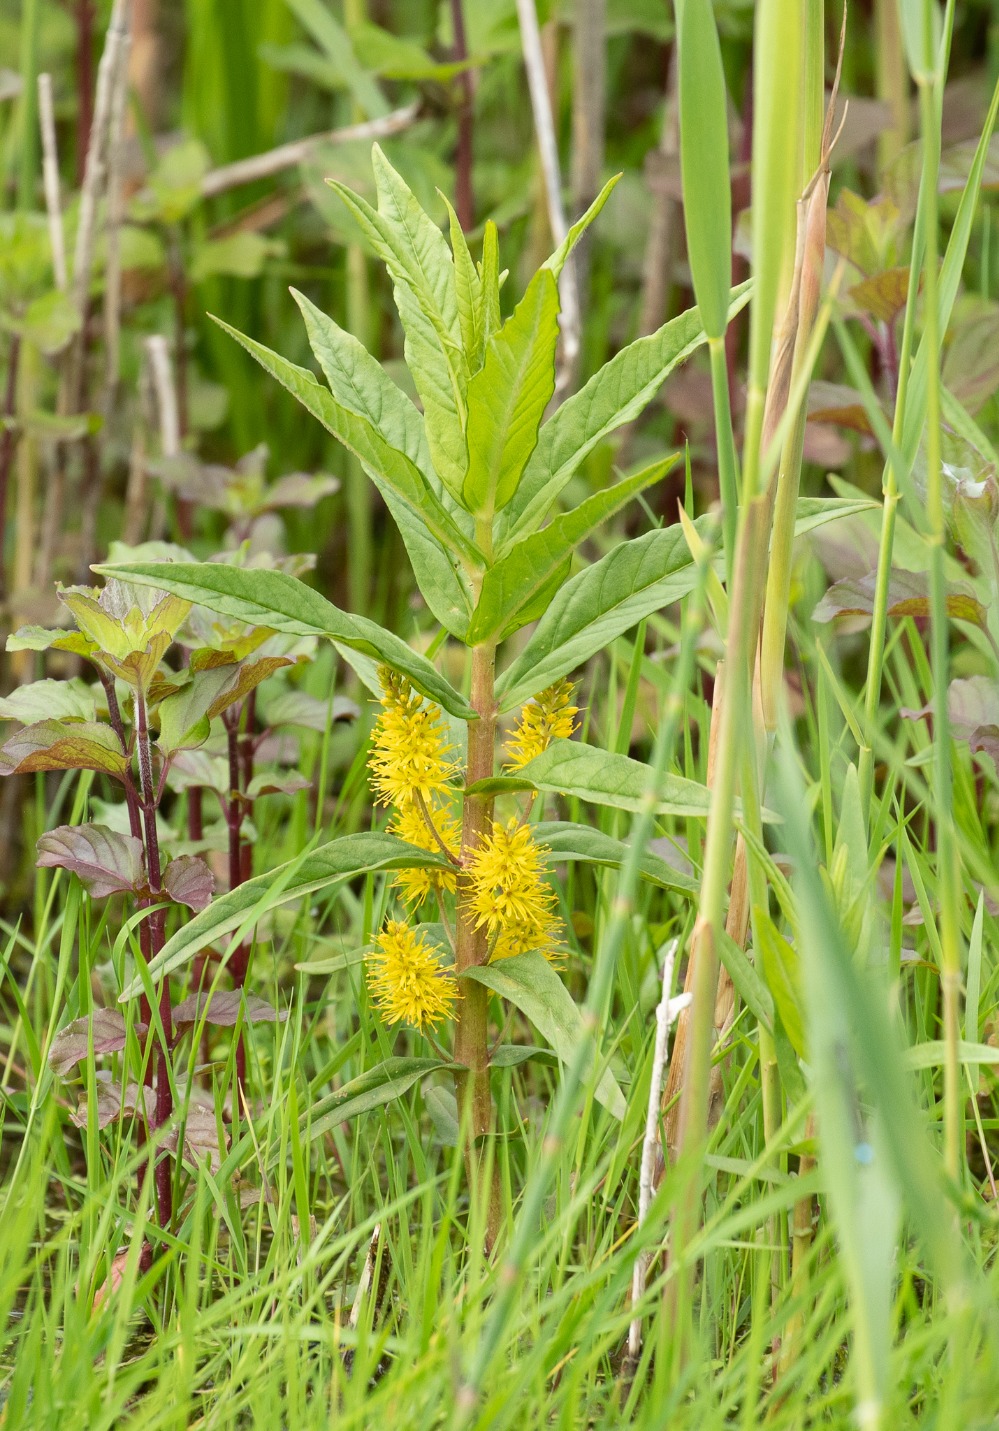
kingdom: Plantae
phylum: Tracheophyta
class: Magnoliopsida
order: Ericales
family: Primulaceae
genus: Lysimachia
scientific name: Lysimachia thyrsiflora
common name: Dusk-fredløs
